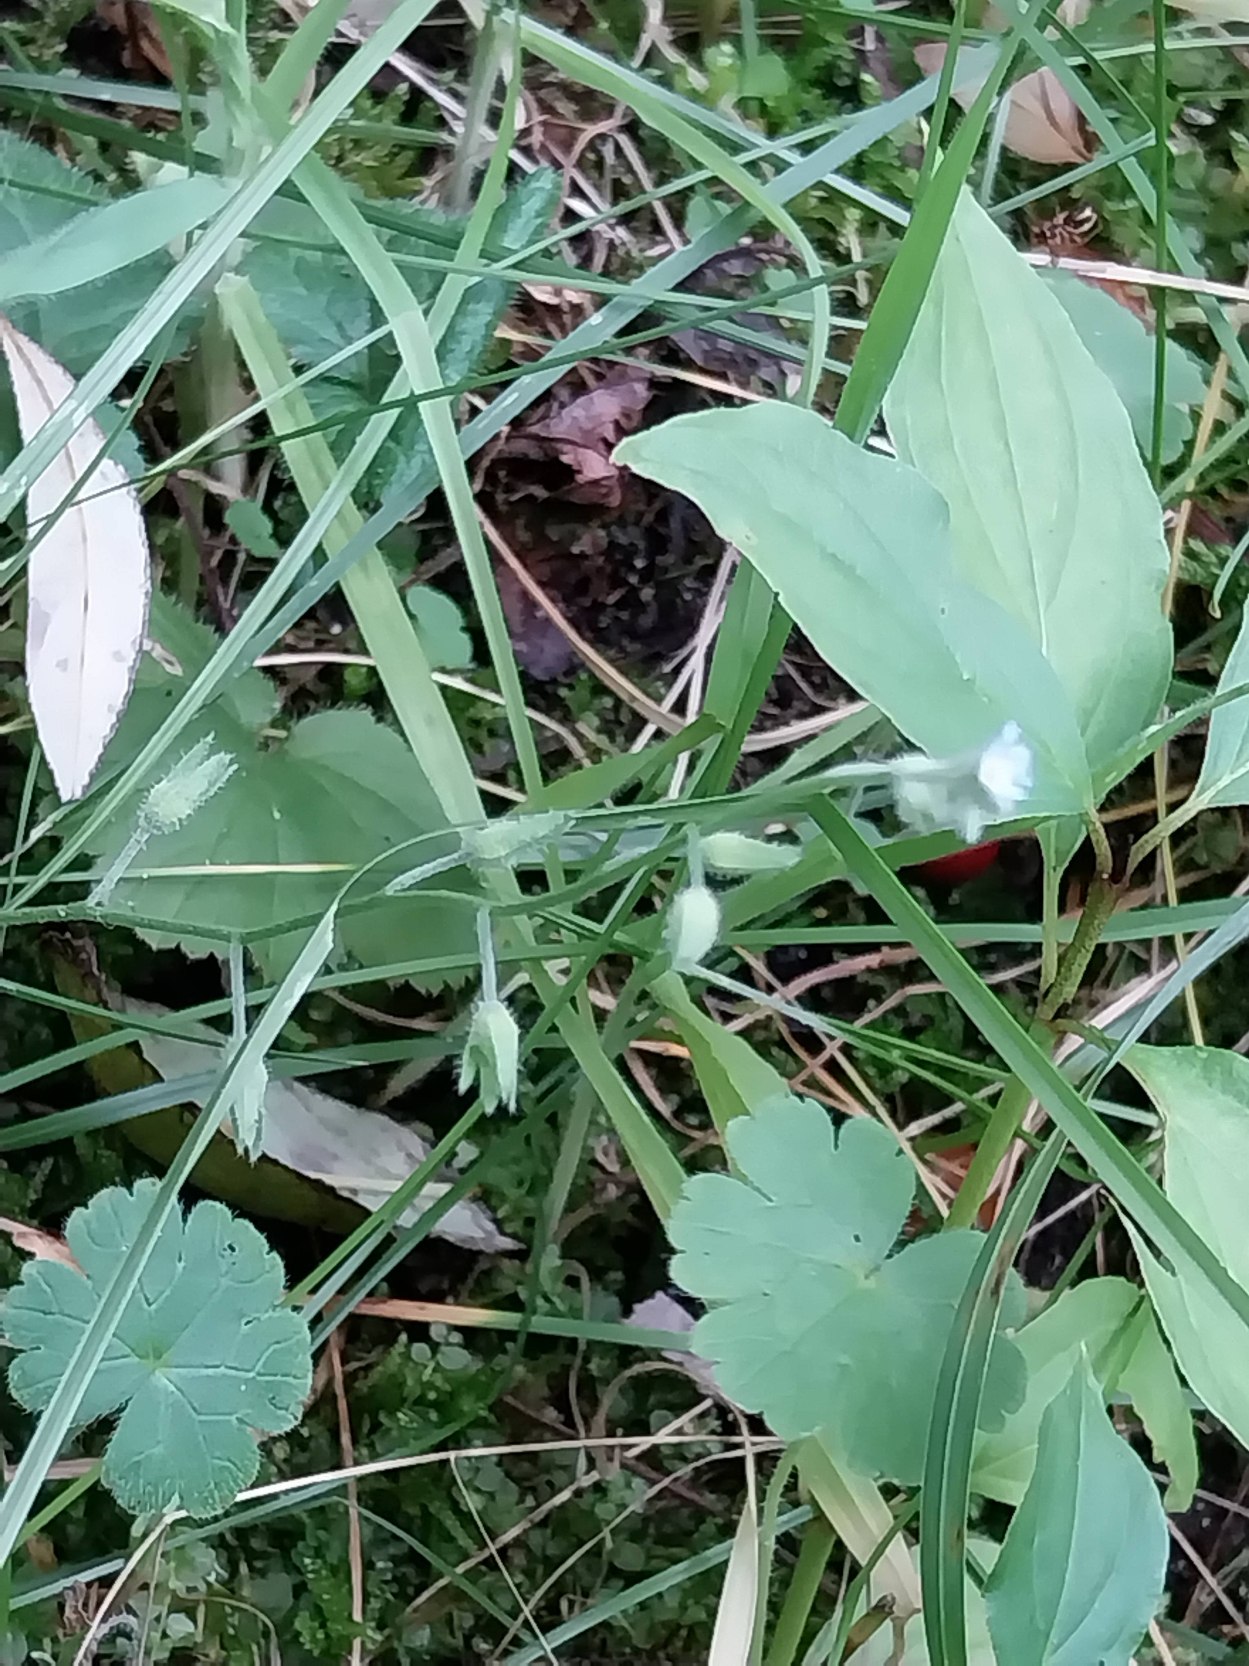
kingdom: Plantae
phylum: Tracheophyta
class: Magnoliopsida
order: Boraginales
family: Boraginaceae
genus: Myosotis
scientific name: Myosotis arvensis
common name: Mark-forglemmigej
